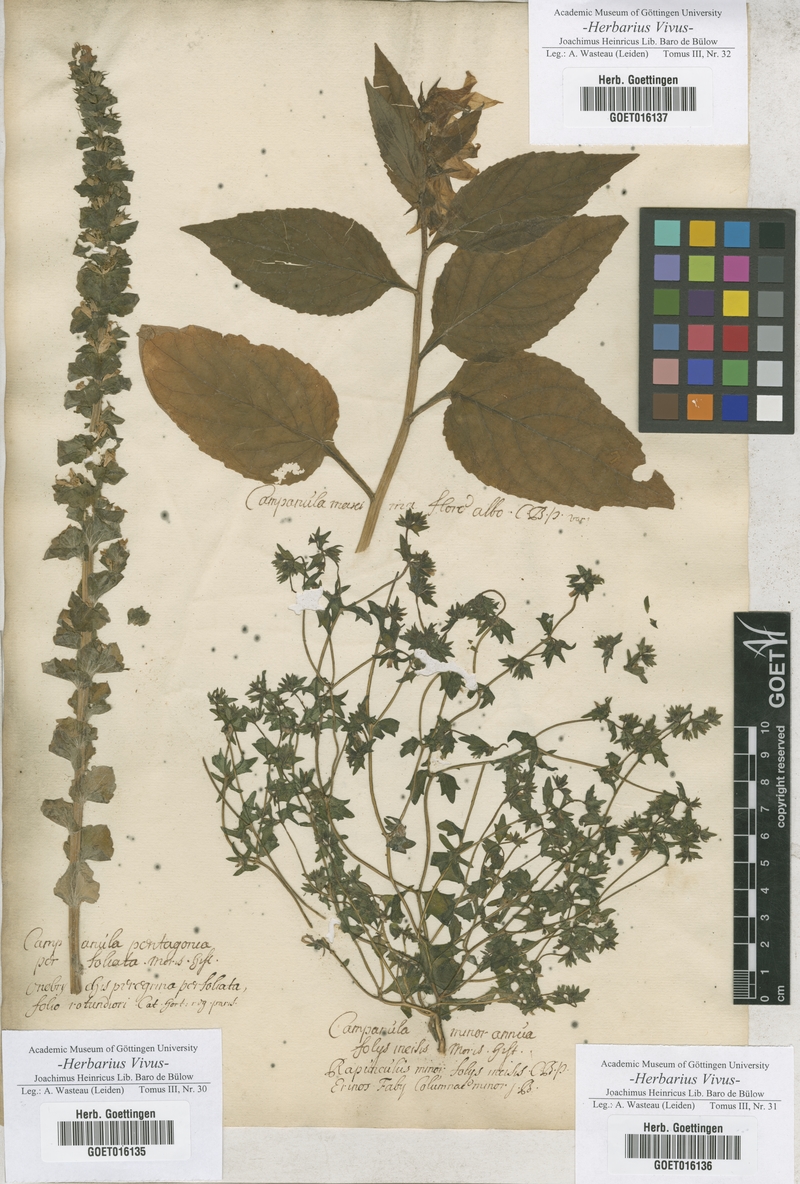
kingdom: Plantae
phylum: Tracheophyta
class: Magnoliopsida
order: Asterales
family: Campanulaceae
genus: Triodanis
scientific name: Triodanis perfoliata
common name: Clasping venus' looking-glass
